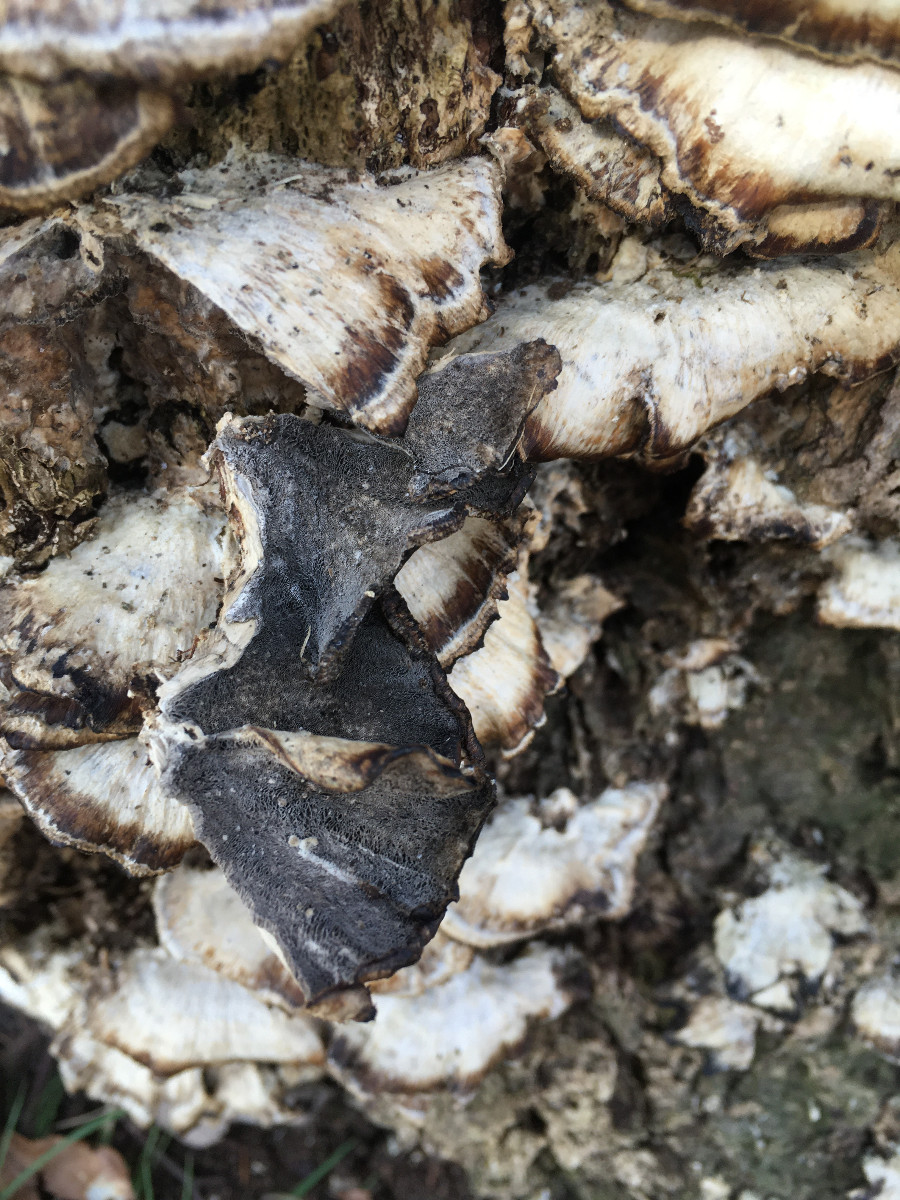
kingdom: Fungi
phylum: Basidiomycota
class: Agaricomycetes
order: Polyporales
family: Phanerochaetaceae
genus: Bjerkandera
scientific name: Bjerkandera adusta
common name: sveden sodporesvamp
